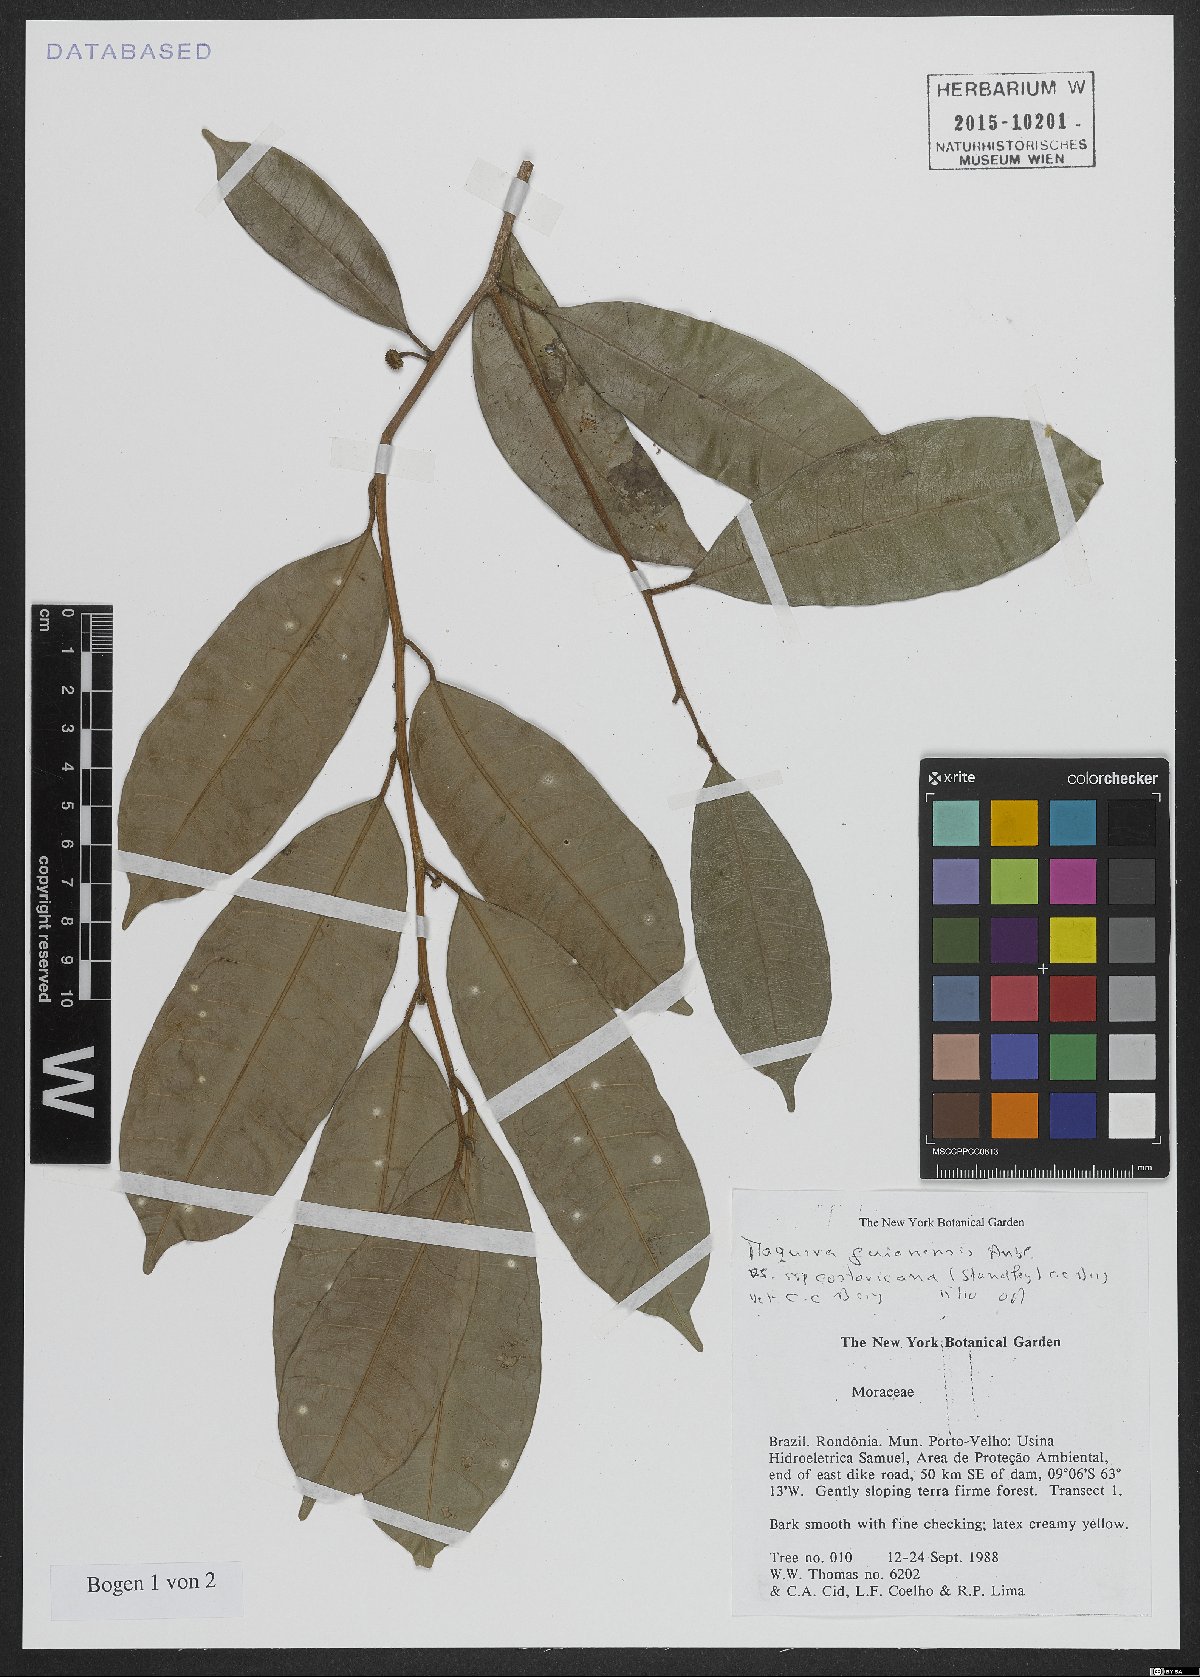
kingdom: Plantae
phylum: Tracheophyta
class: Magnoliopsida
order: Rosales
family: Moraceae
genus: Maquira
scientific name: Maquira guianensis
